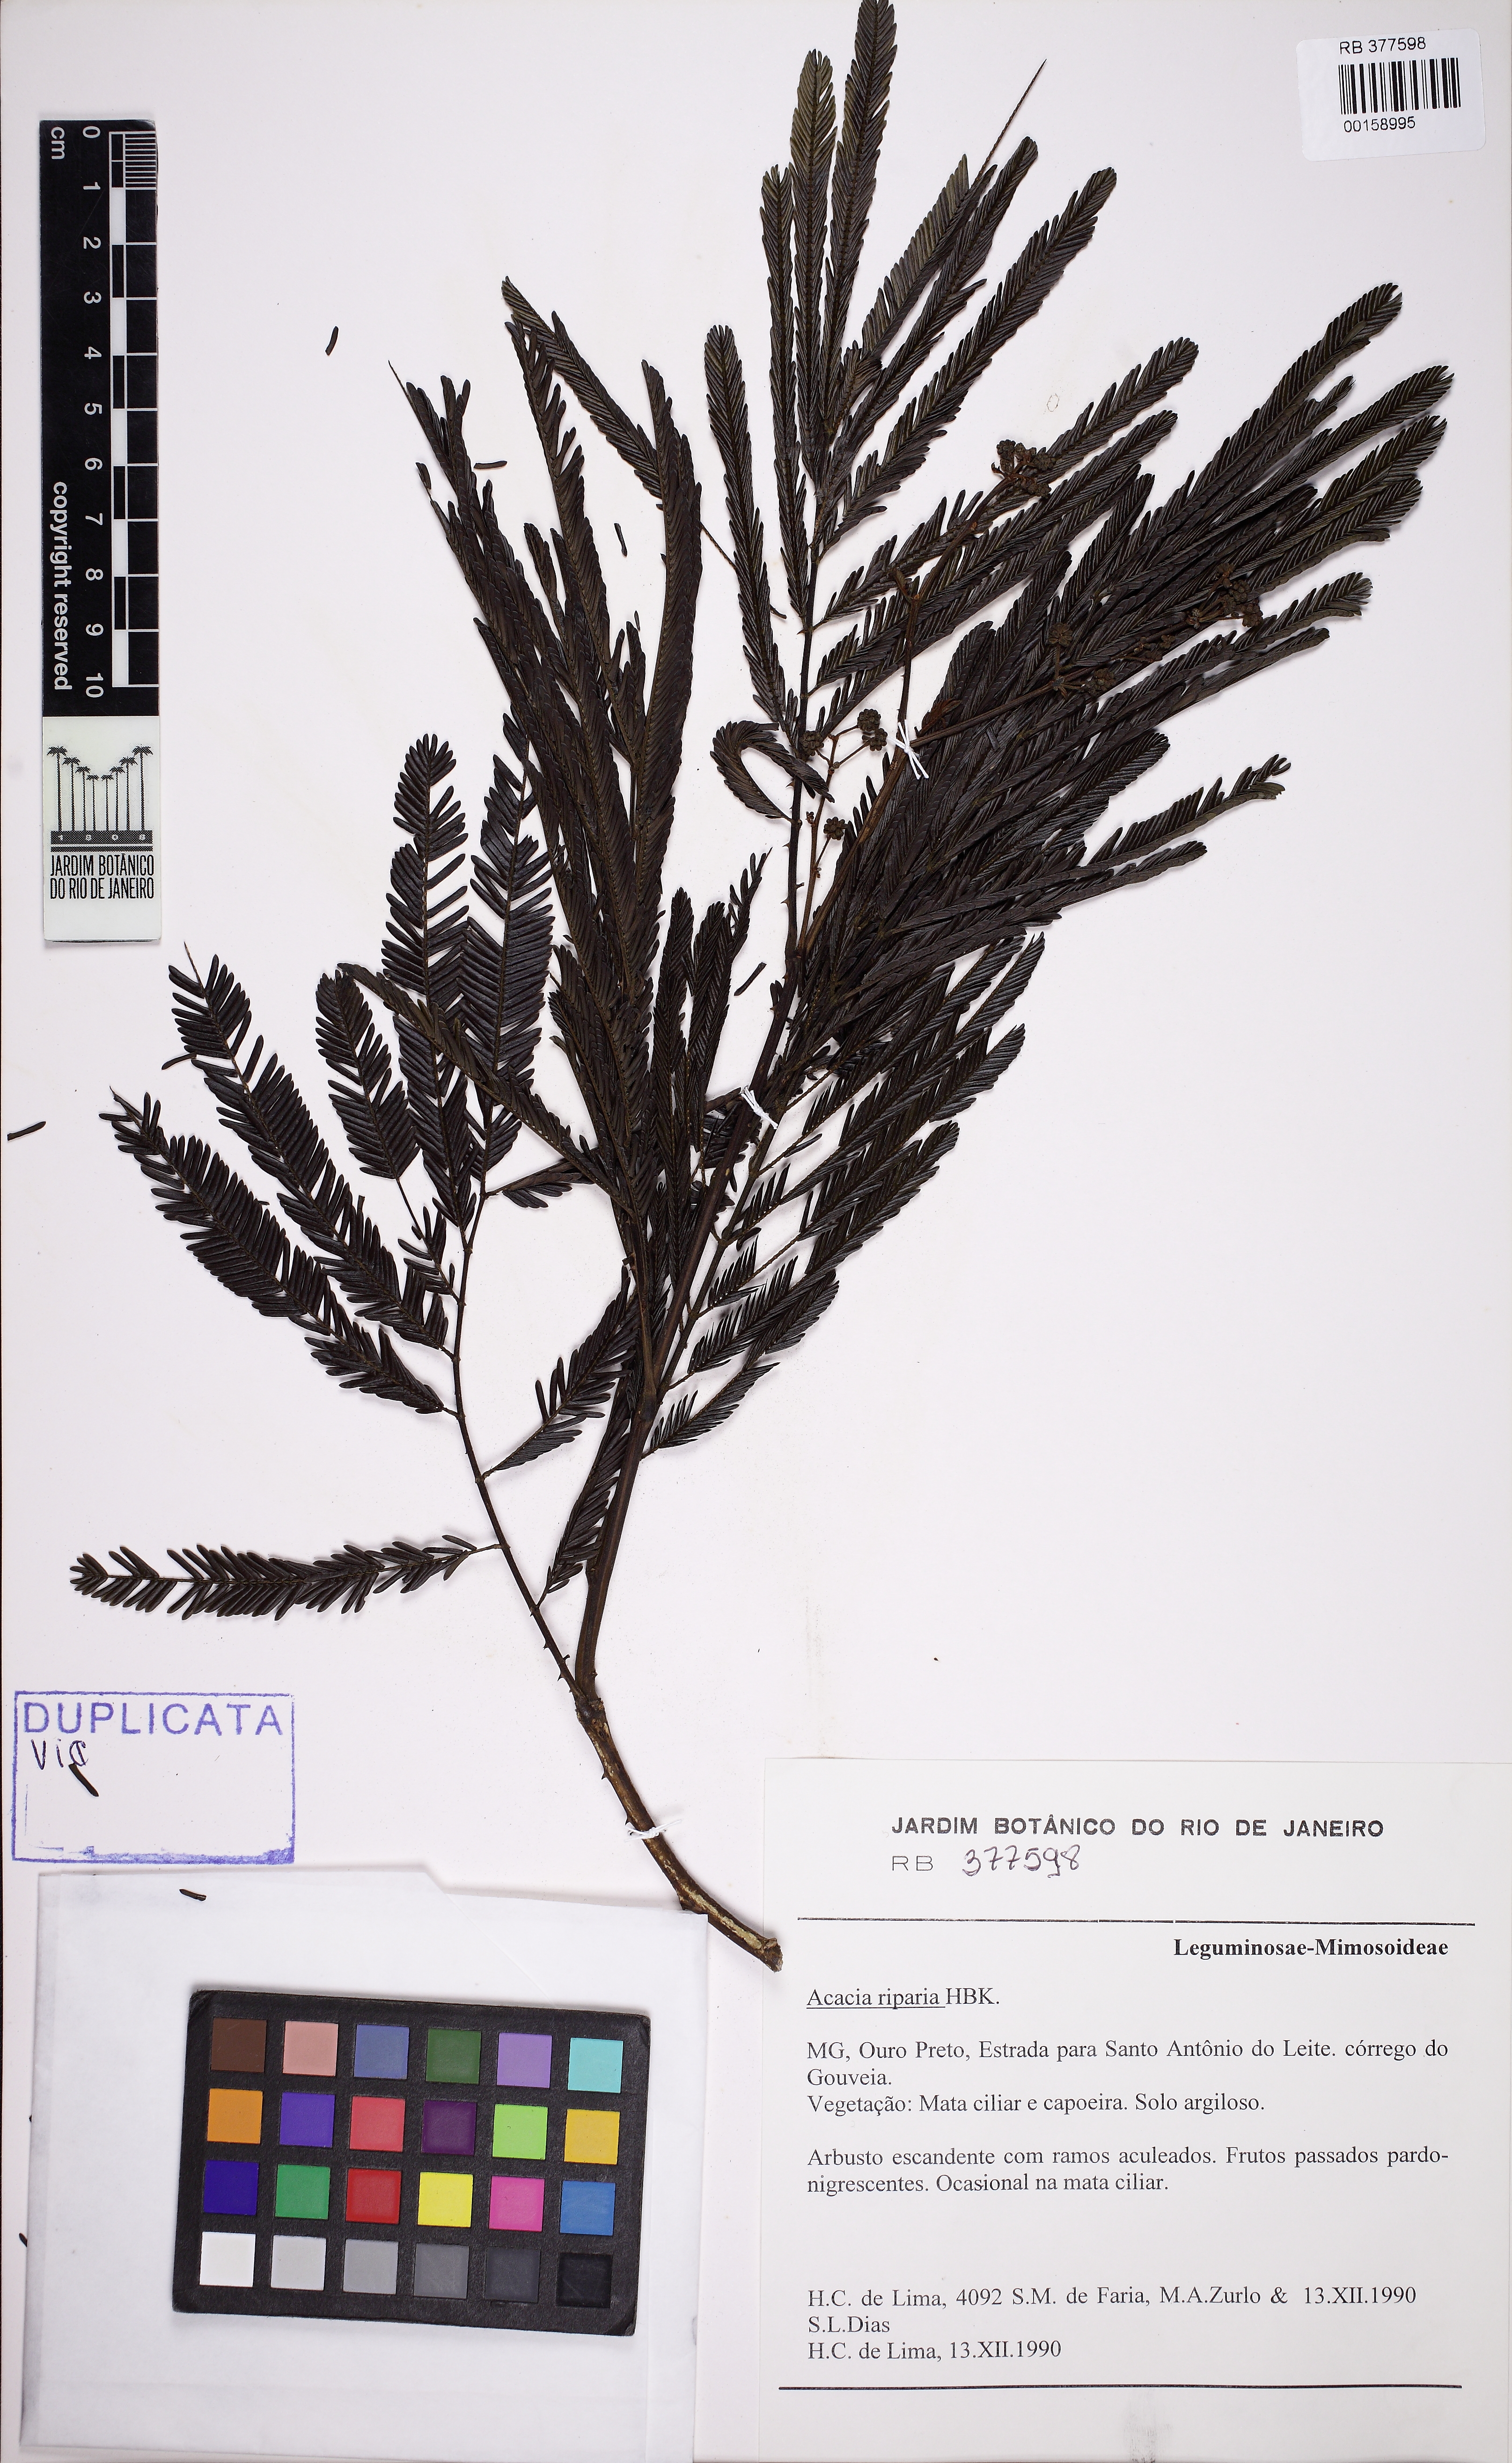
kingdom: Plantae
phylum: Tracheophyta
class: Magnoliopsida
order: Fabales
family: Fabaceae
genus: Senegalia
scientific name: Senegalia riparia
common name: Catch-and-keep
